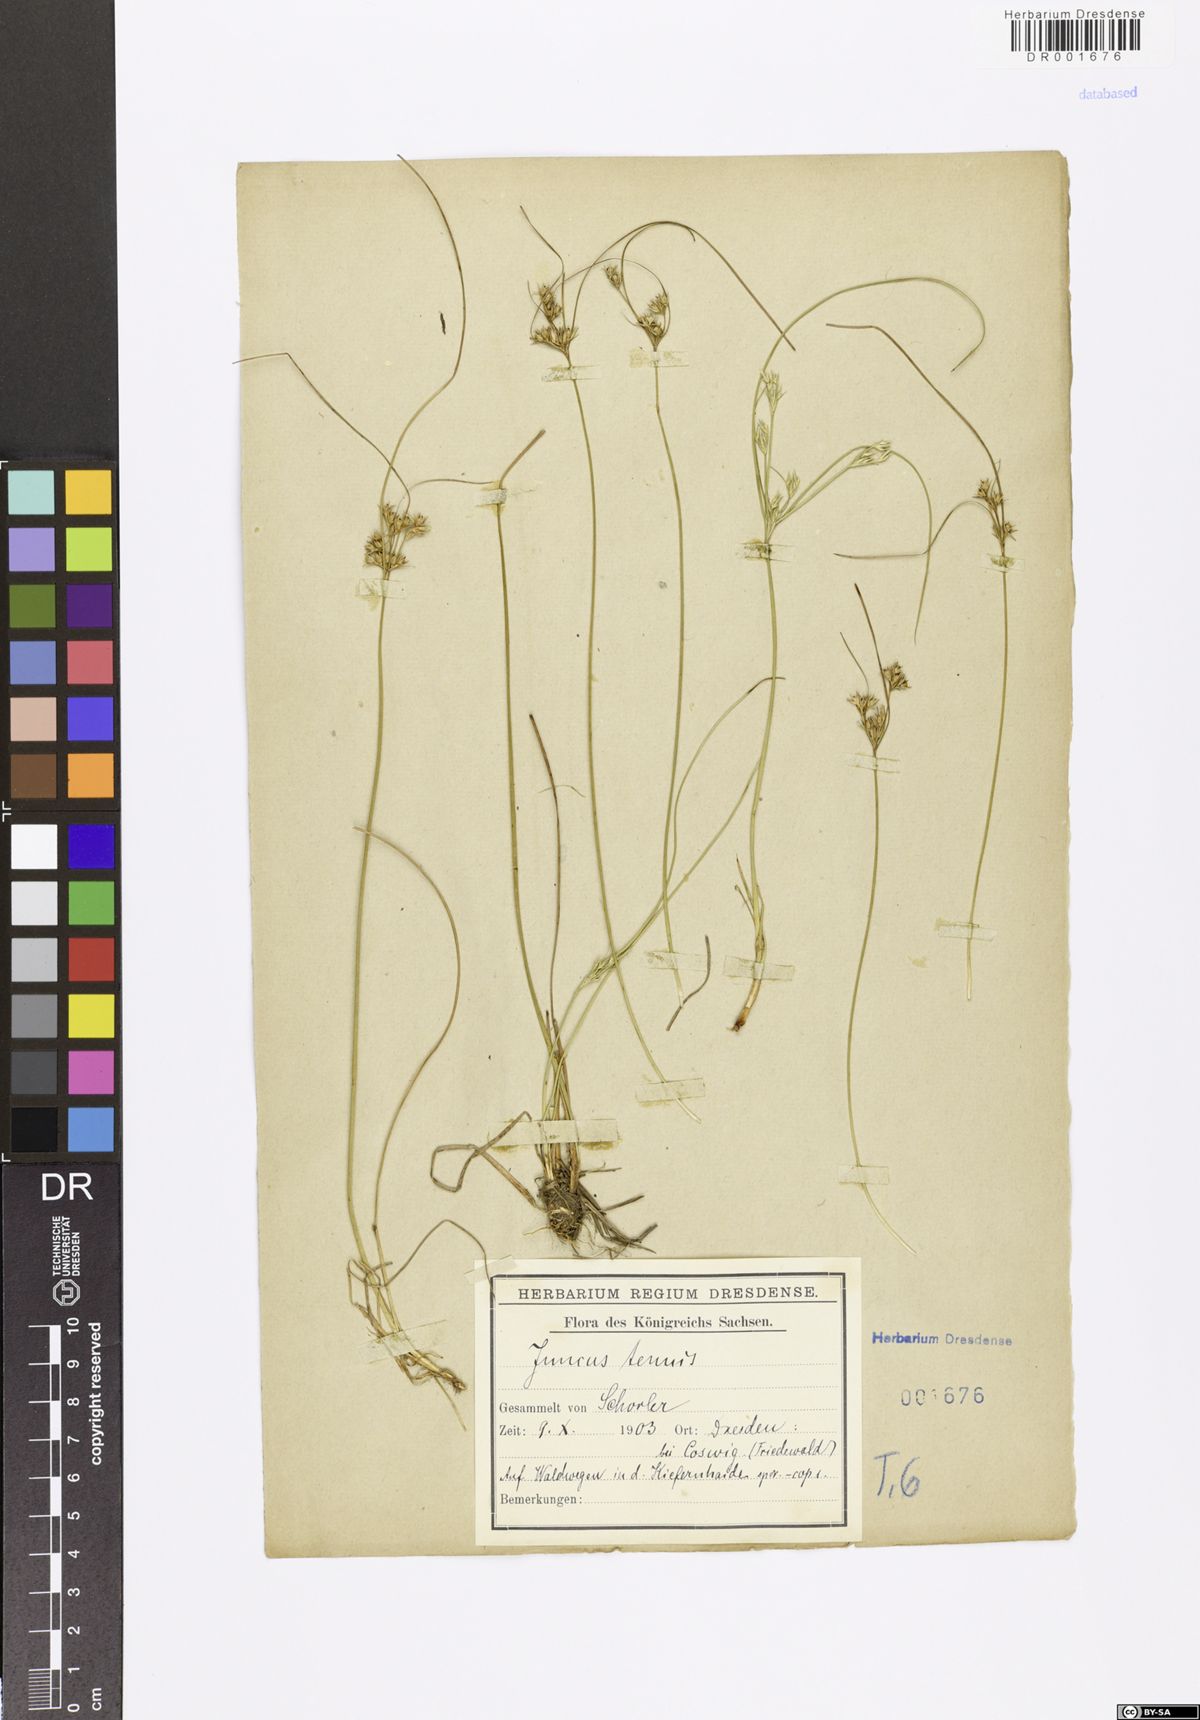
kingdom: Plantae
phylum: Tracheophyta
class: Liliopsida
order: Poales
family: Juncaceae
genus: Juncus
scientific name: Juncus tenuis
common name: Slender rush
